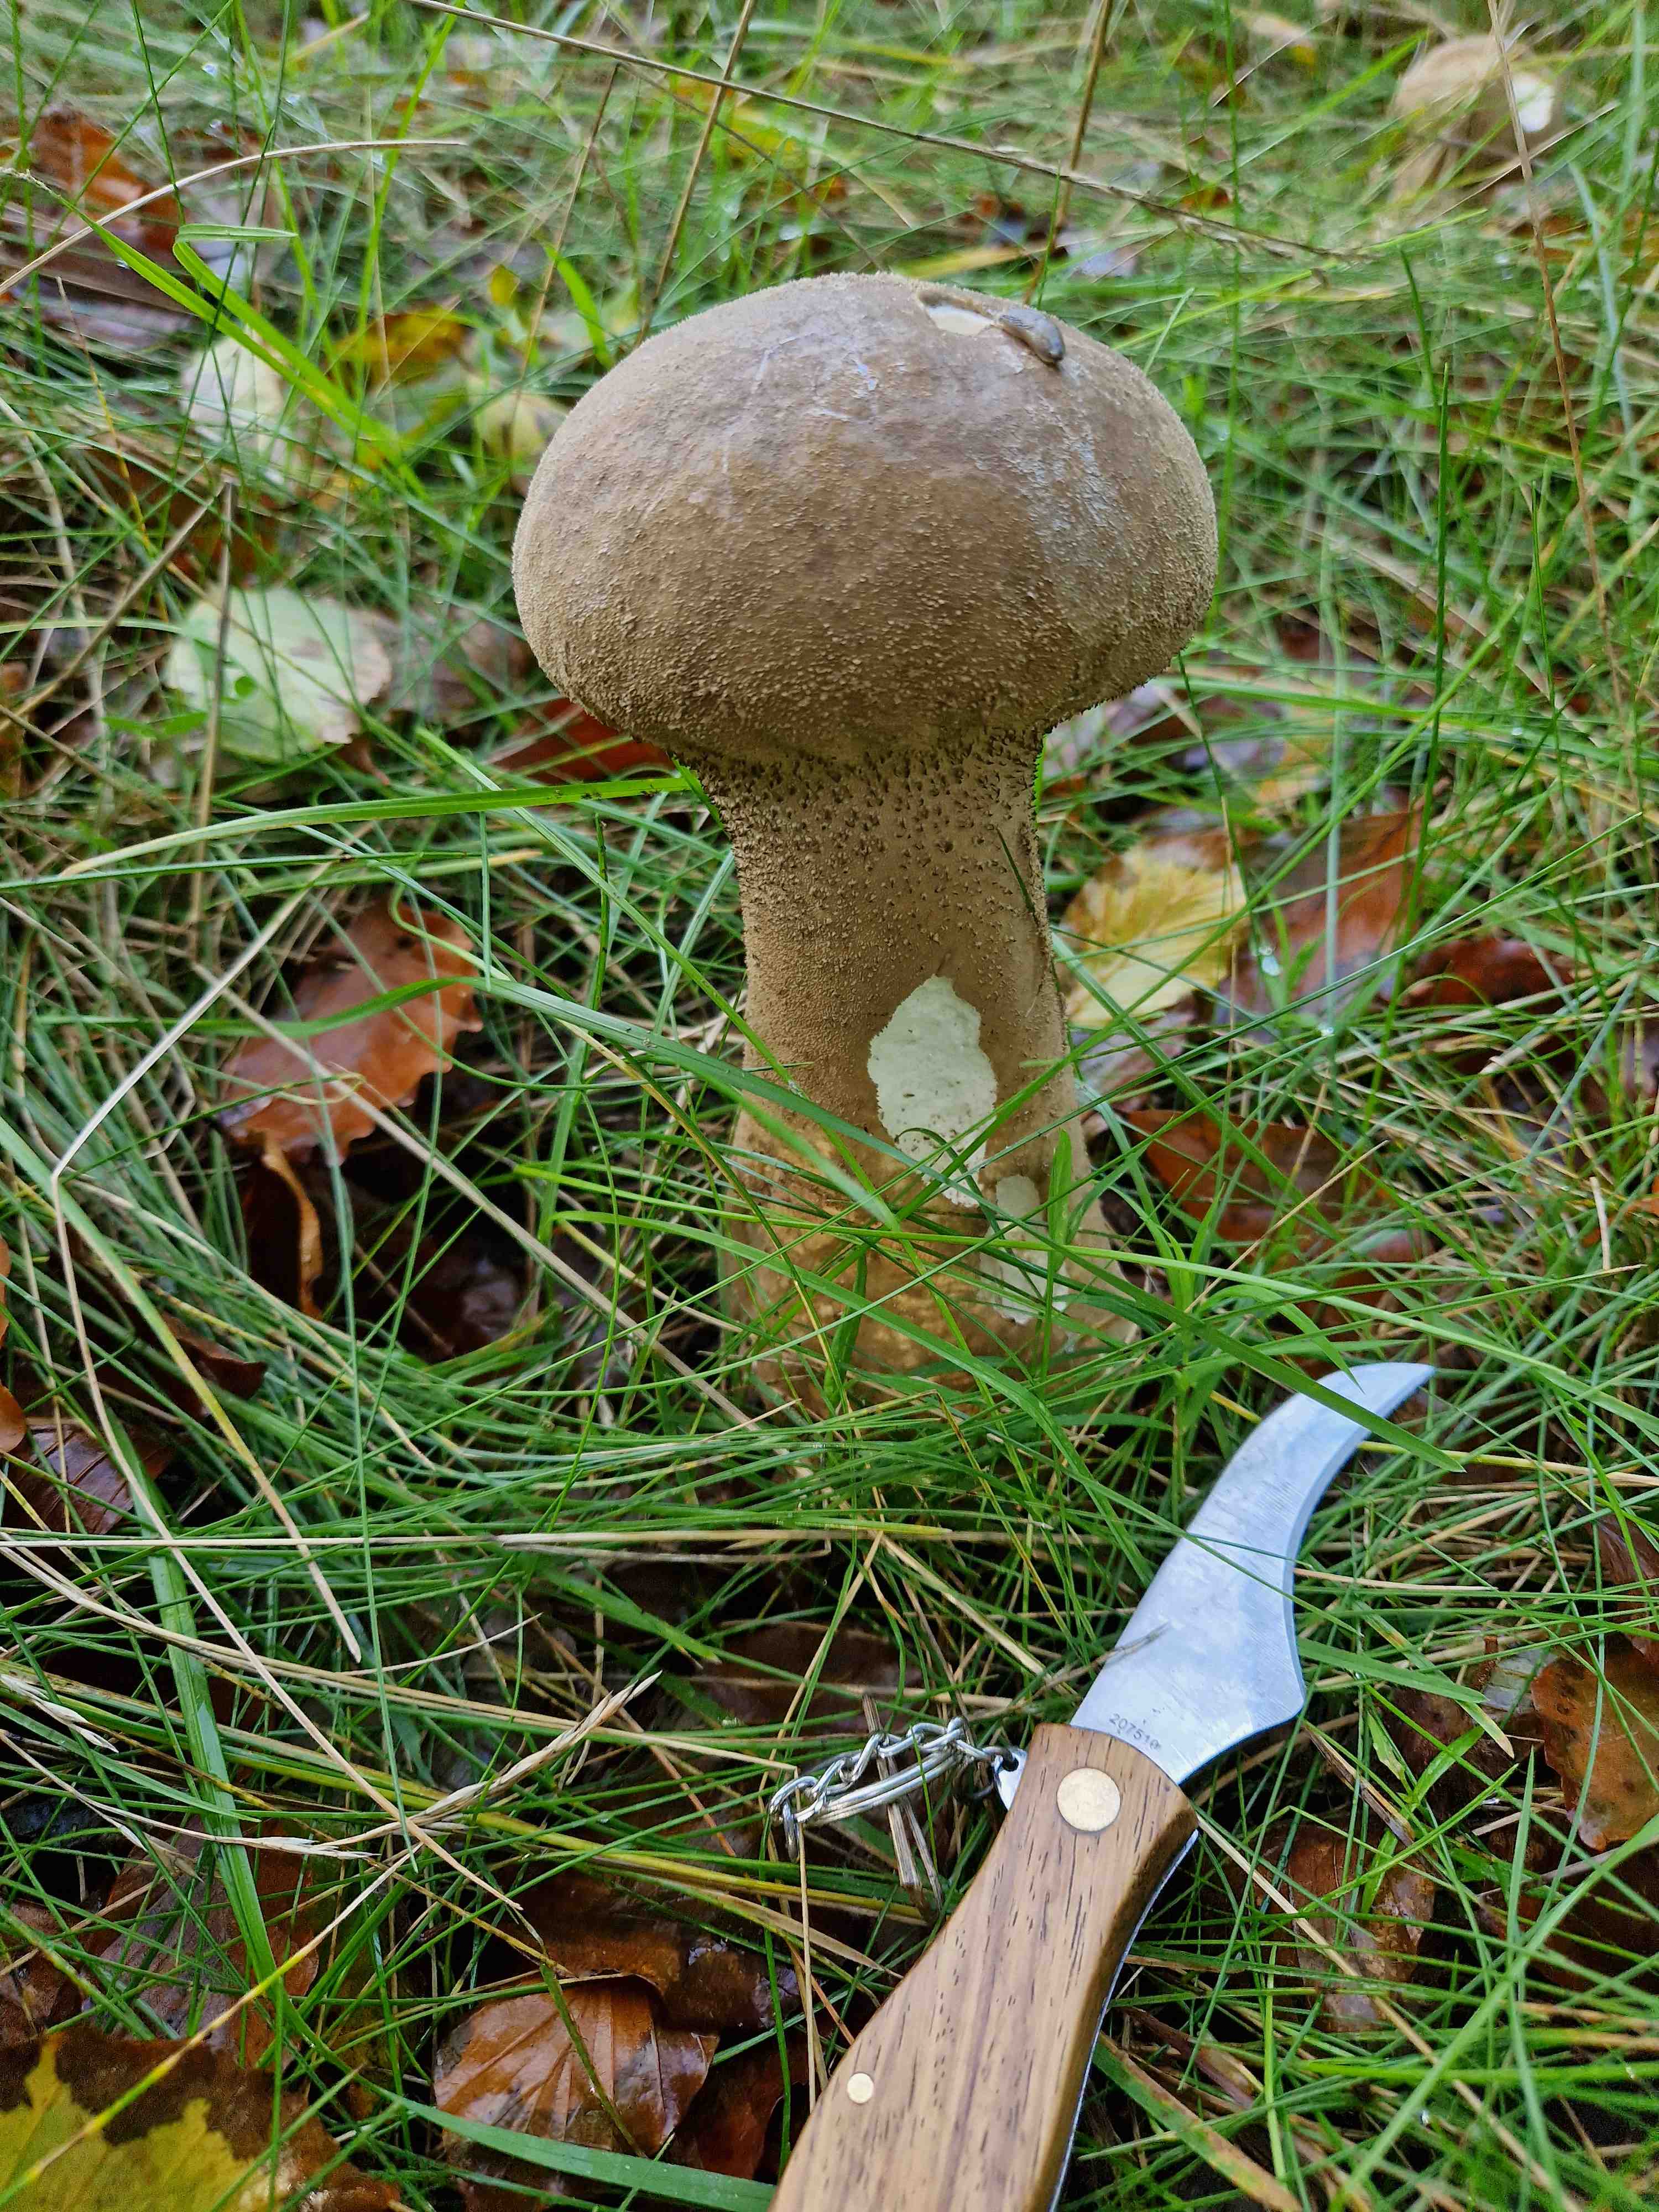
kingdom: Fungi
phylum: Basidiomycota
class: Agaricomycetes
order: Agaricales
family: Lycoperdaceae
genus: Lycoperdon
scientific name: Lycoperdon excipuliforme
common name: højstokket støvbold
